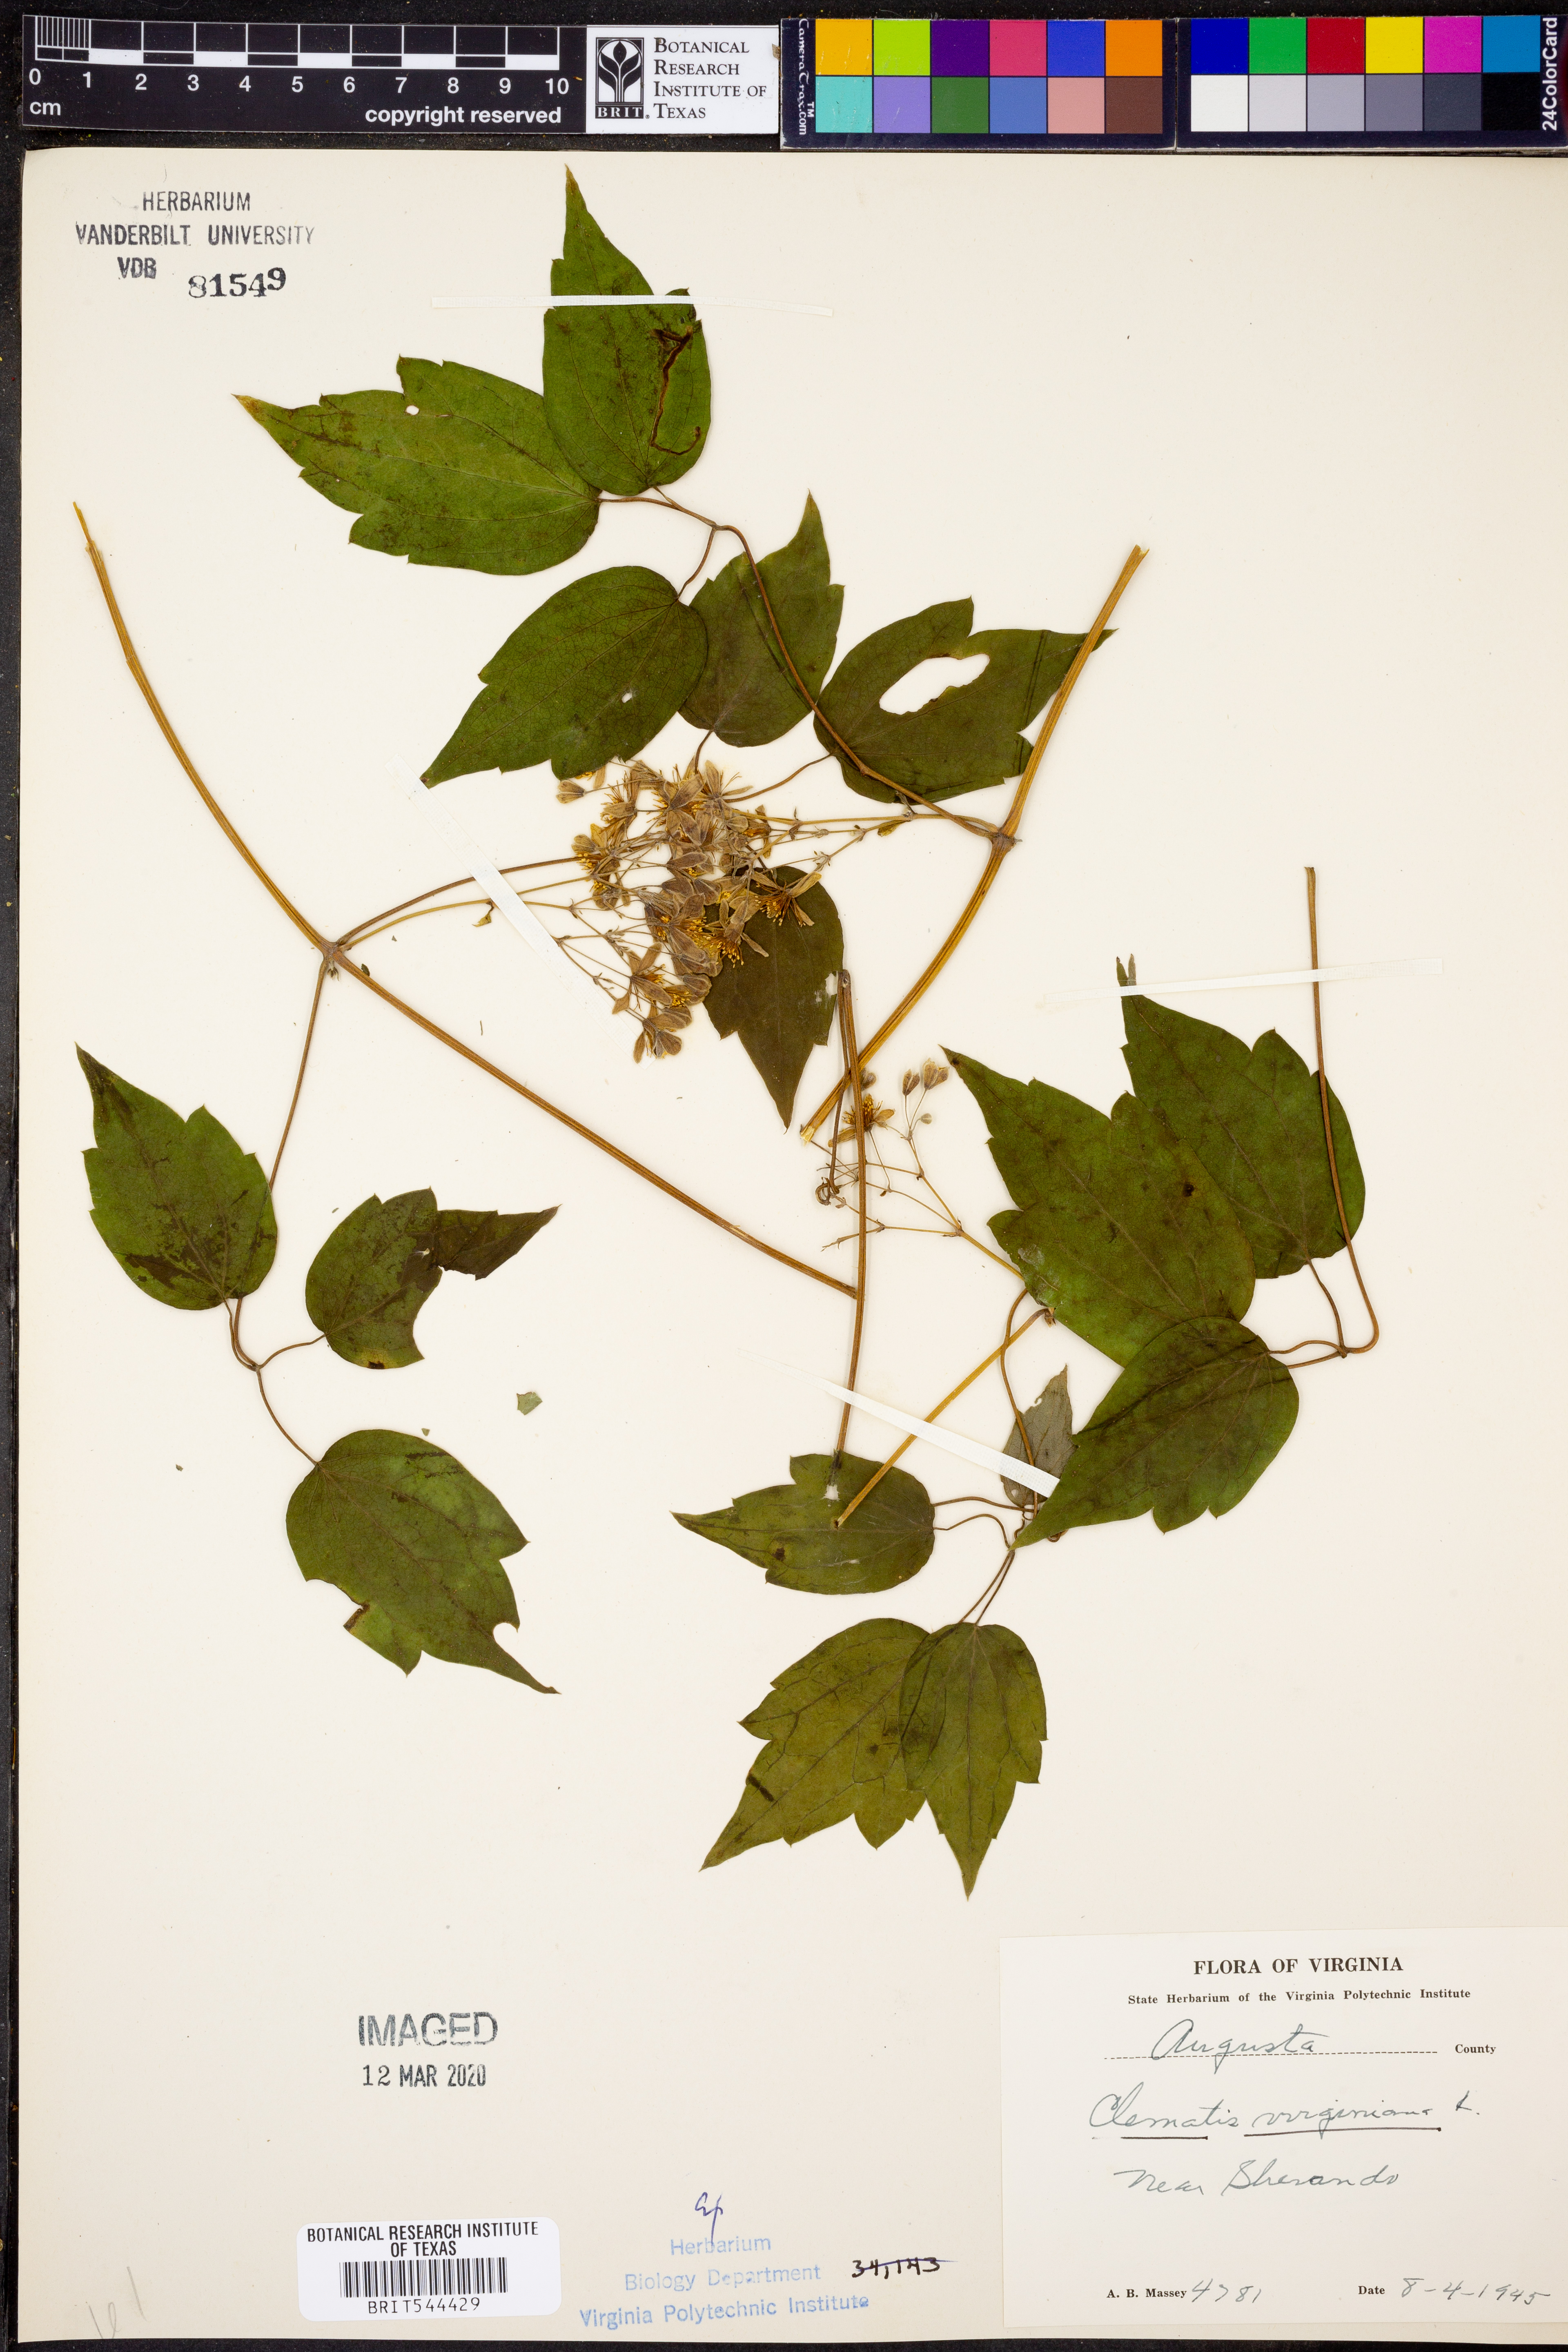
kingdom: Plantae
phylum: Tracheophyta
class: Magnoliopsida
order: Ranunculales
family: Ranunculaceae
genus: Clematis
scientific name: Clematis virginiana
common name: Virgin's-bower
